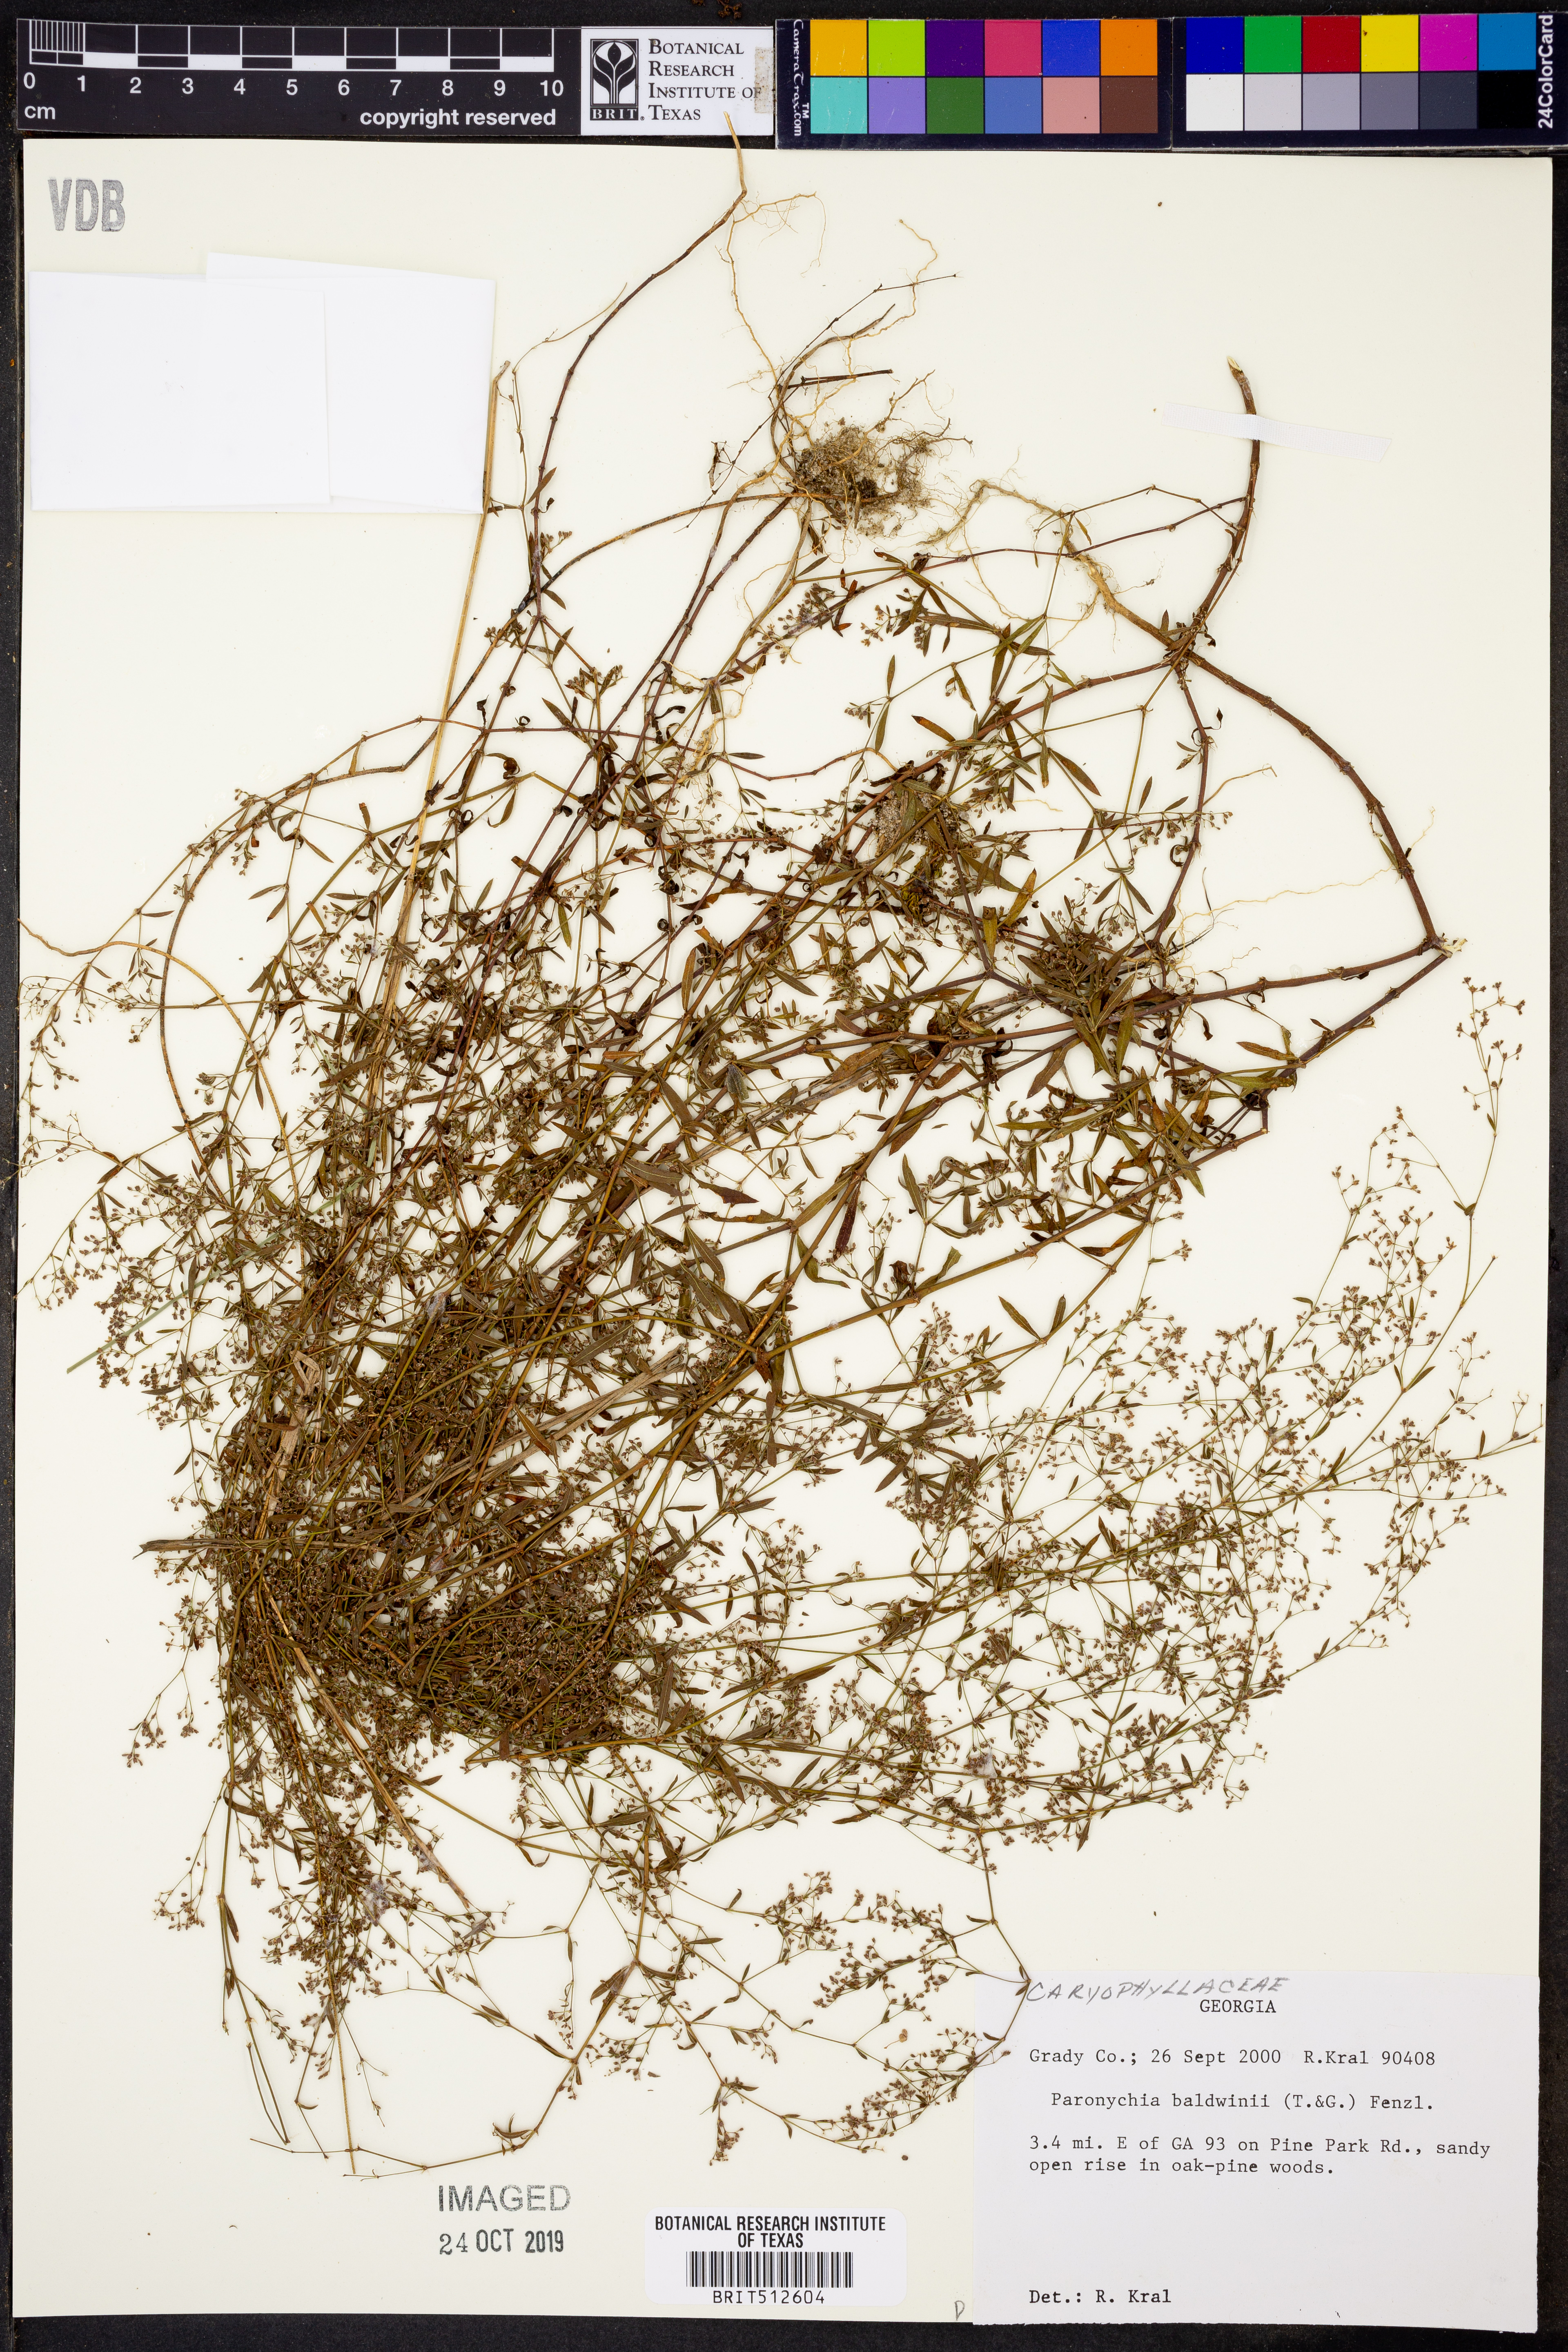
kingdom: Plantae
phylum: Tracheophyta
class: Magnoliopsida
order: Caryophyllales
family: Caryophyllaceae
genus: Paronychia
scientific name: Paronychia baldwinii
